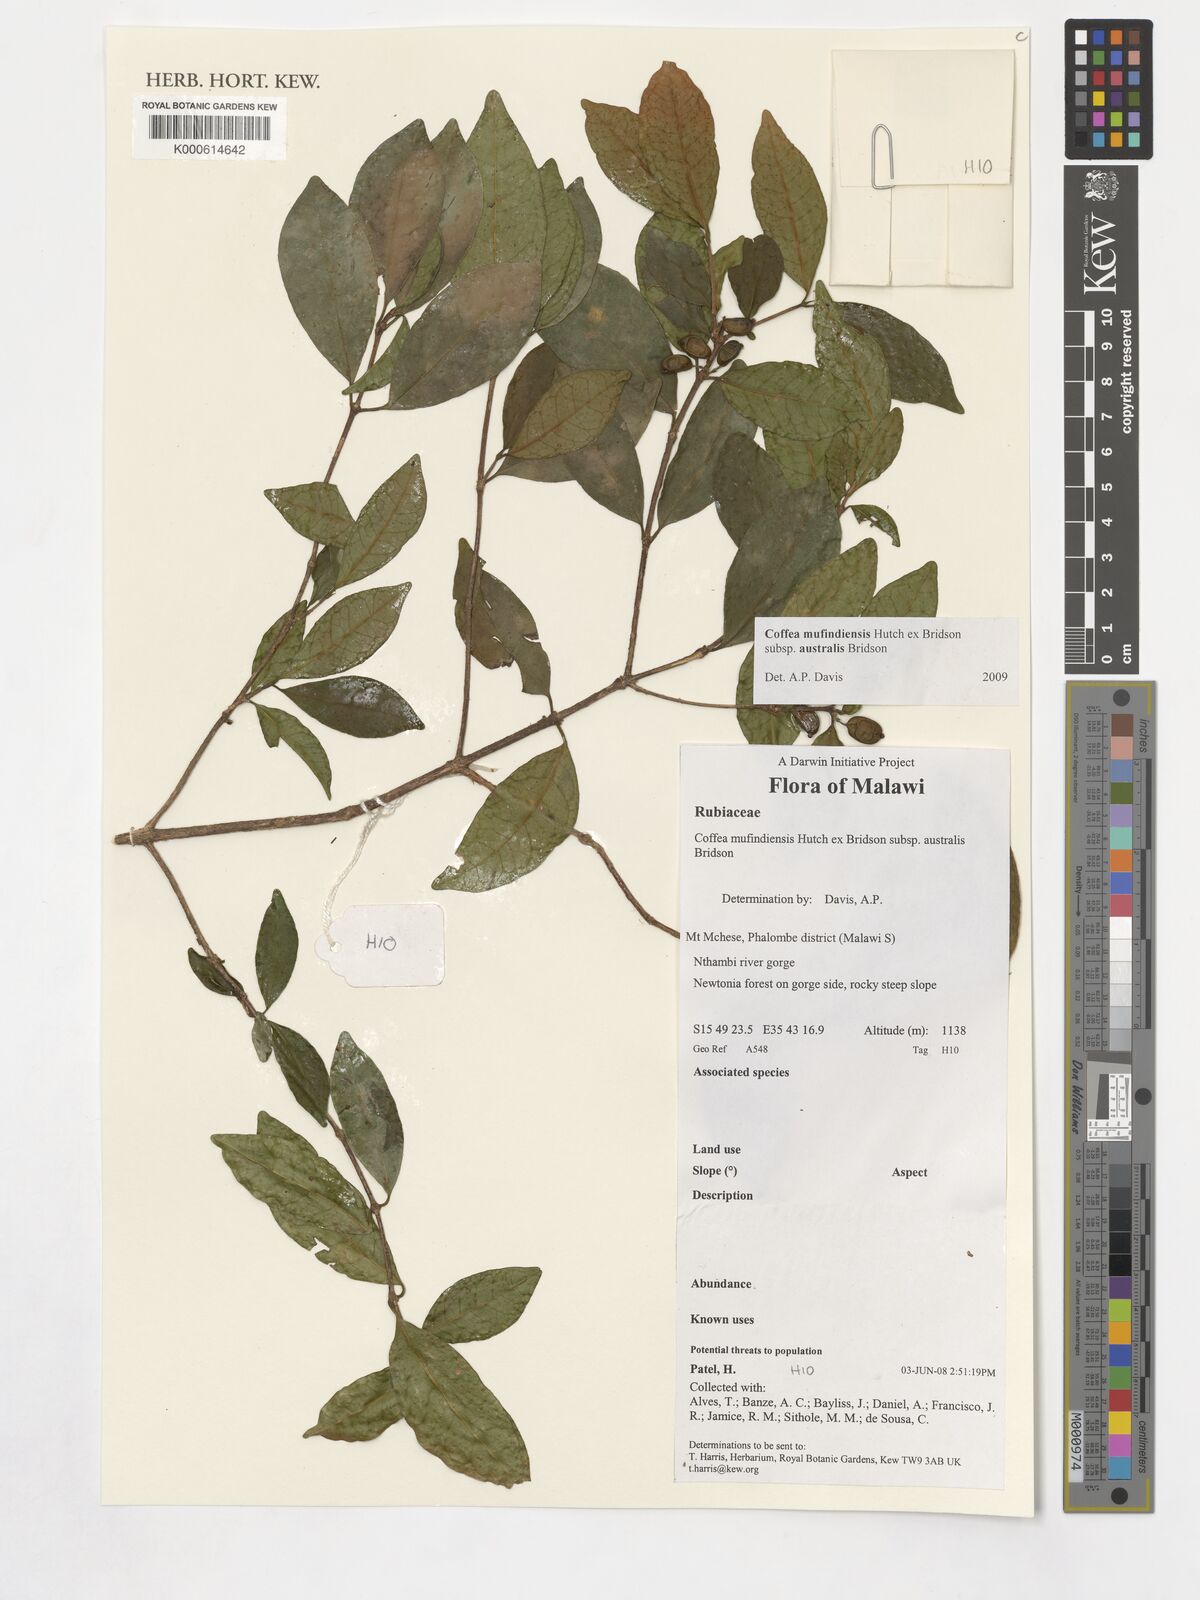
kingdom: Plantae
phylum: Tracheophyta
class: Magnoliopsida
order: Gentianales
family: Rubiaceae
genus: Coffea
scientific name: Coffea mufindiensis
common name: Wild coffee
